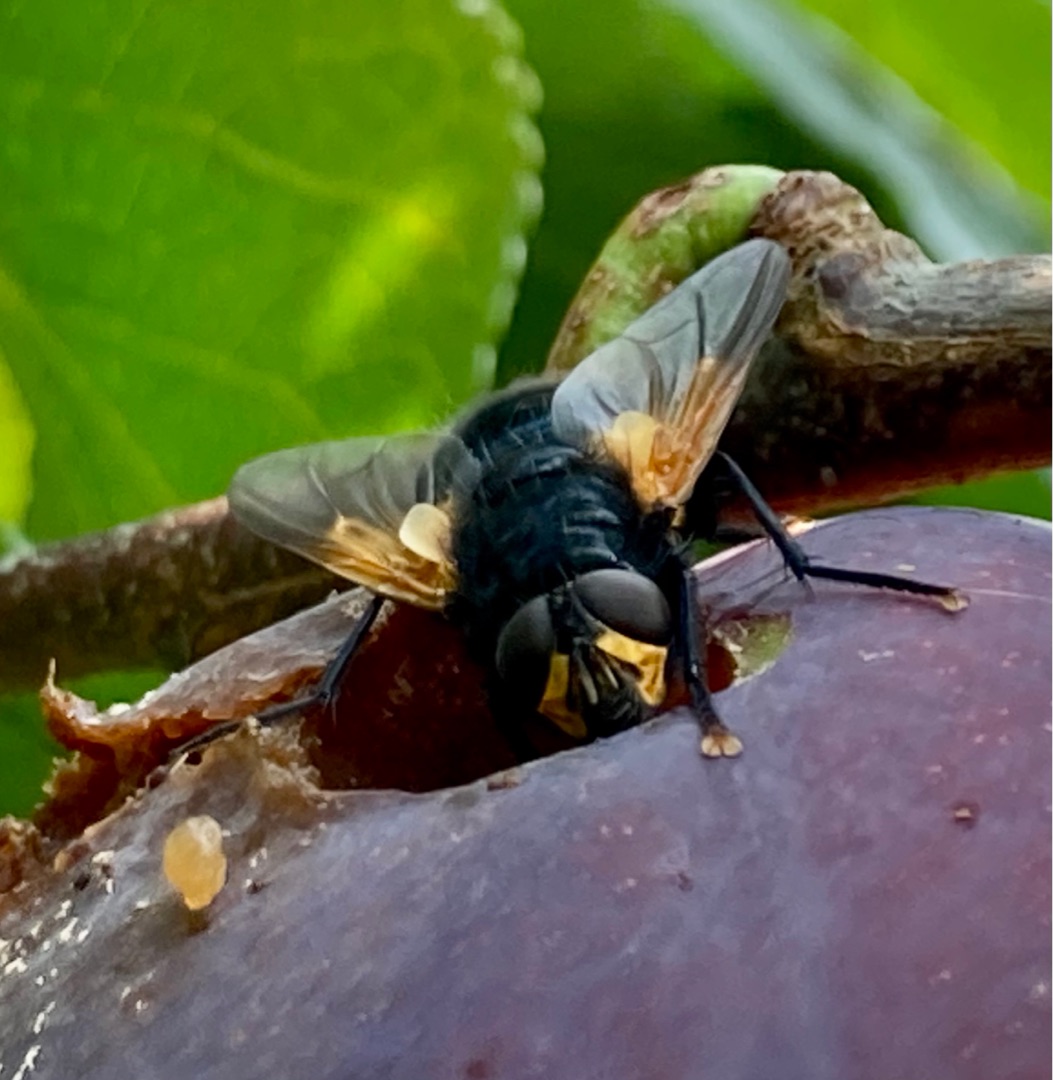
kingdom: Animalia
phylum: Arthropoda
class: Insecta
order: Diptera
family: Muscidae
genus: Mesembrina
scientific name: Mesembrina meridiana
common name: Gulvinget flue
